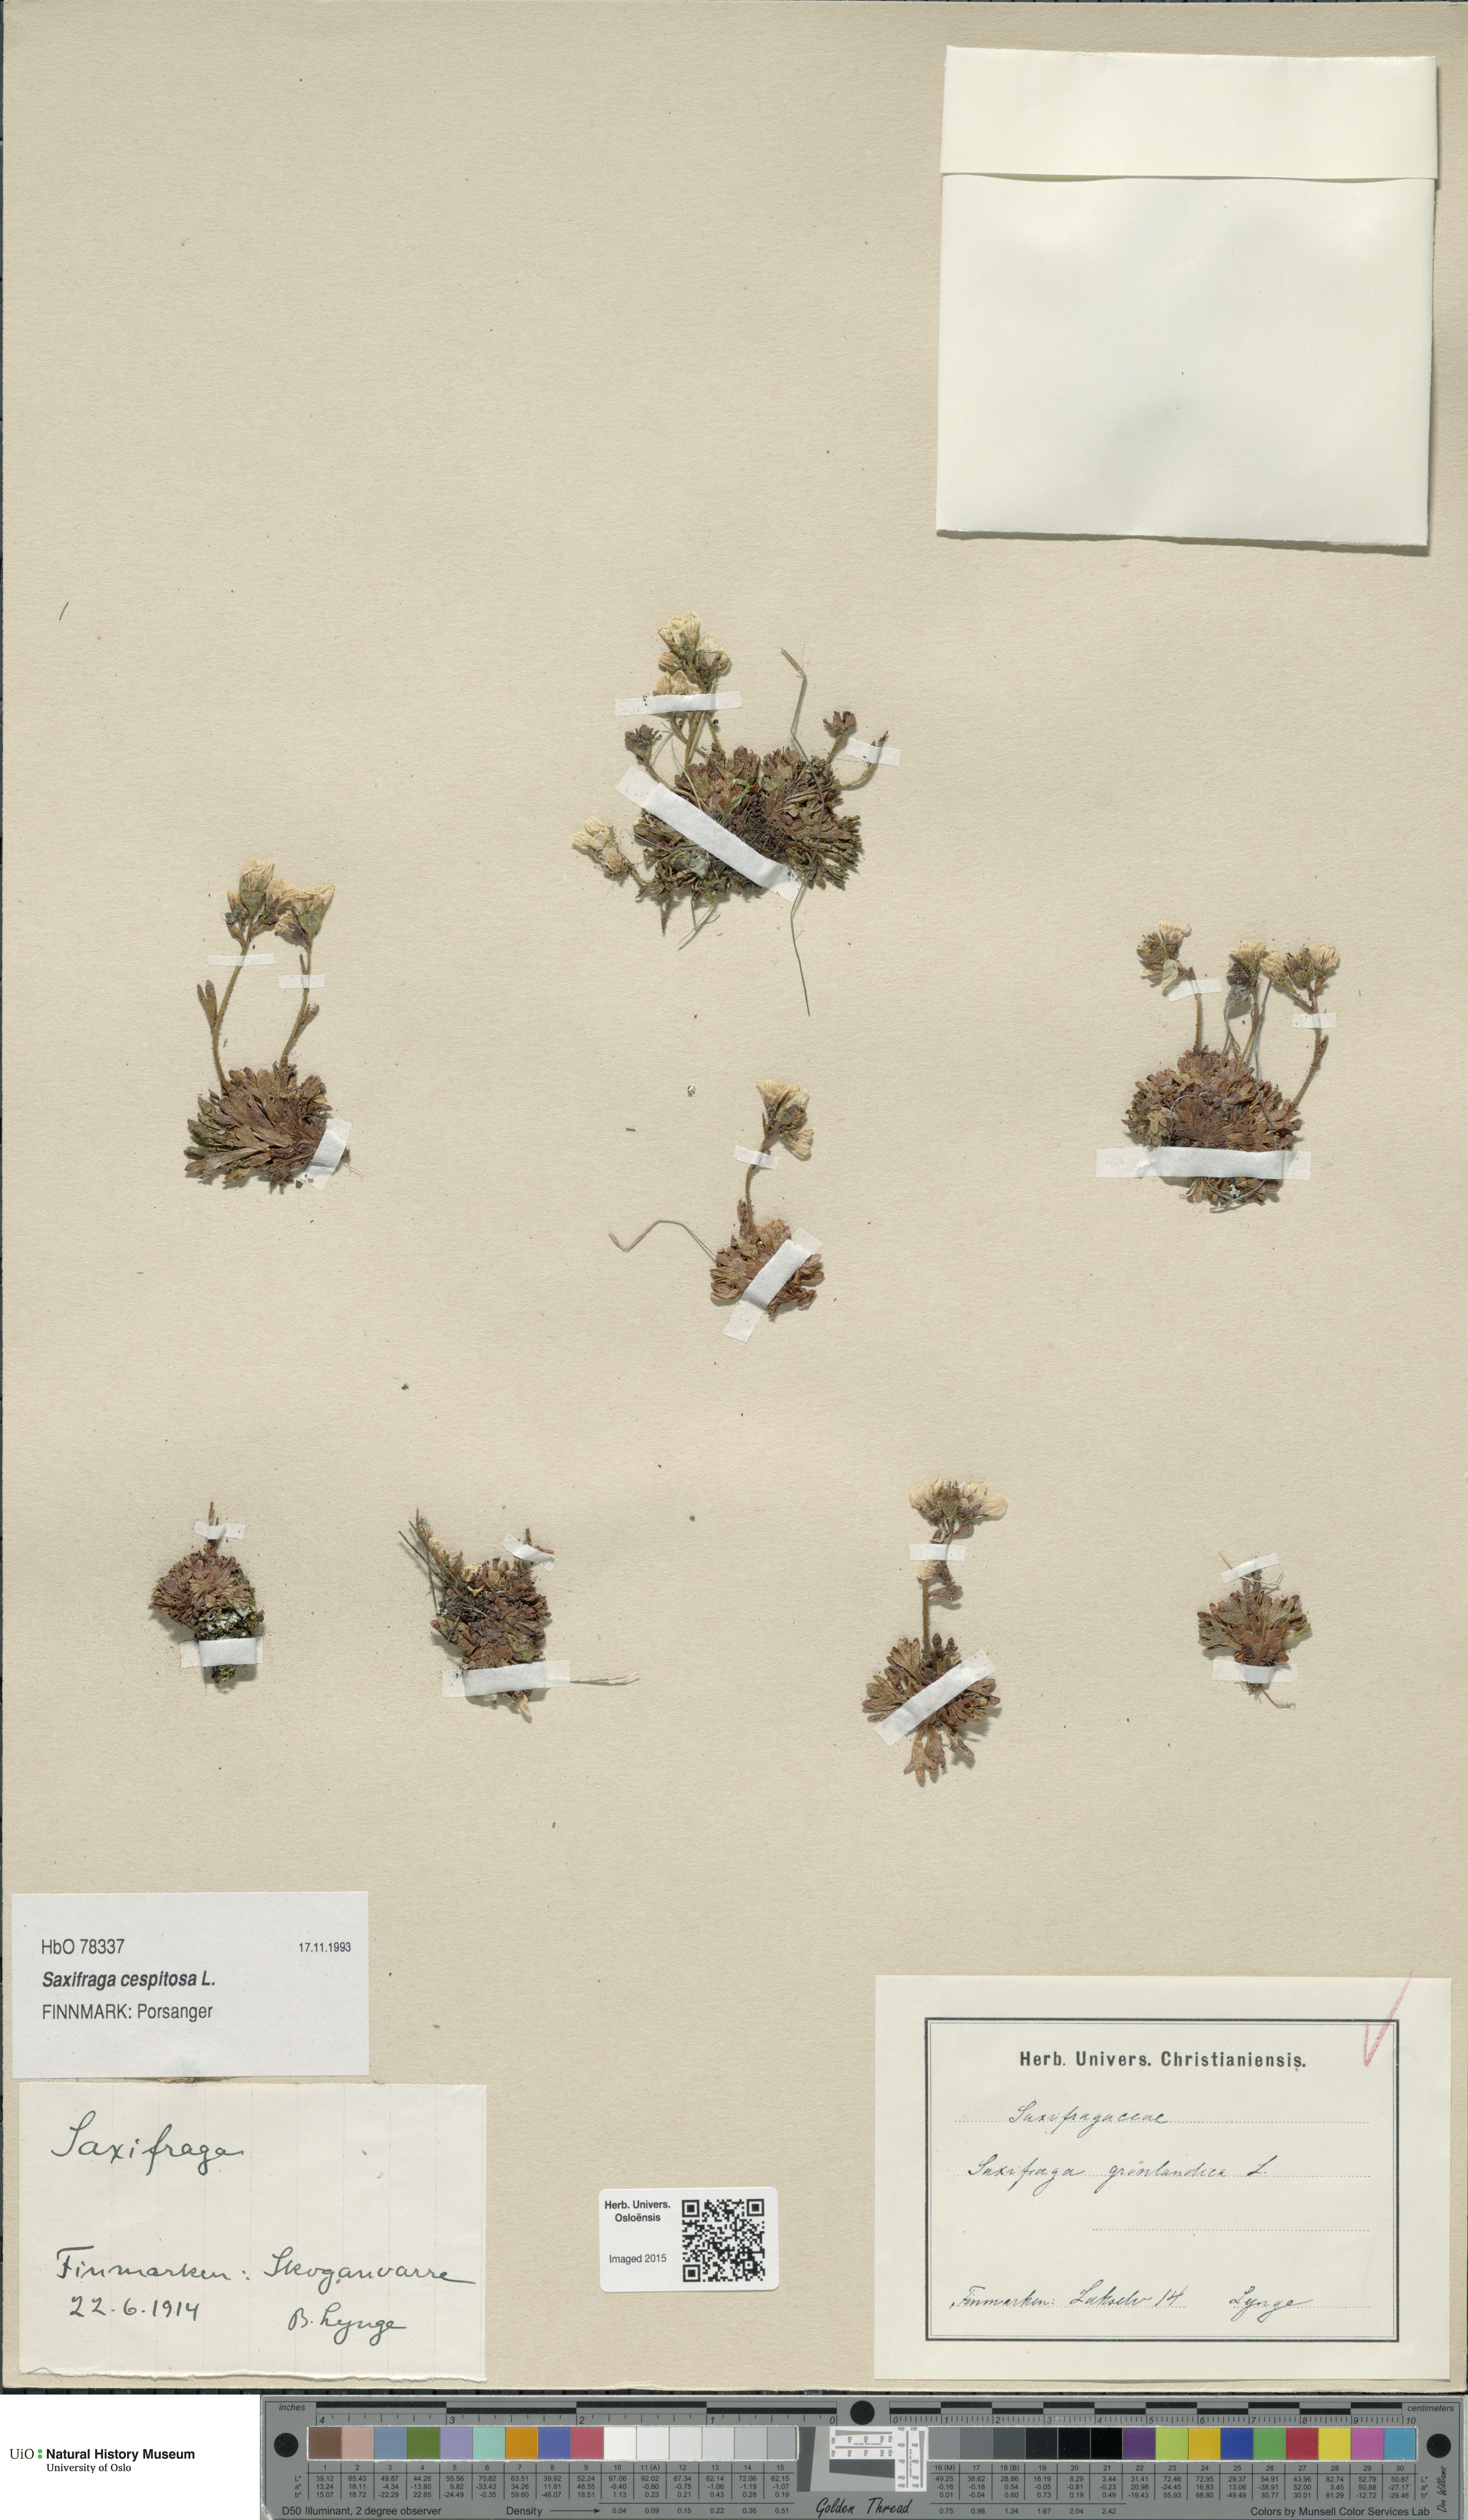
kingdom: Plantae
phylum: Tracheophyta
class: Magnoliopsida
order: Saxifragales
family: Saxifragaceae
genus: Saxifraga
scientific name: Saxifraga cespitosa
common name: Tufted saxifrage
